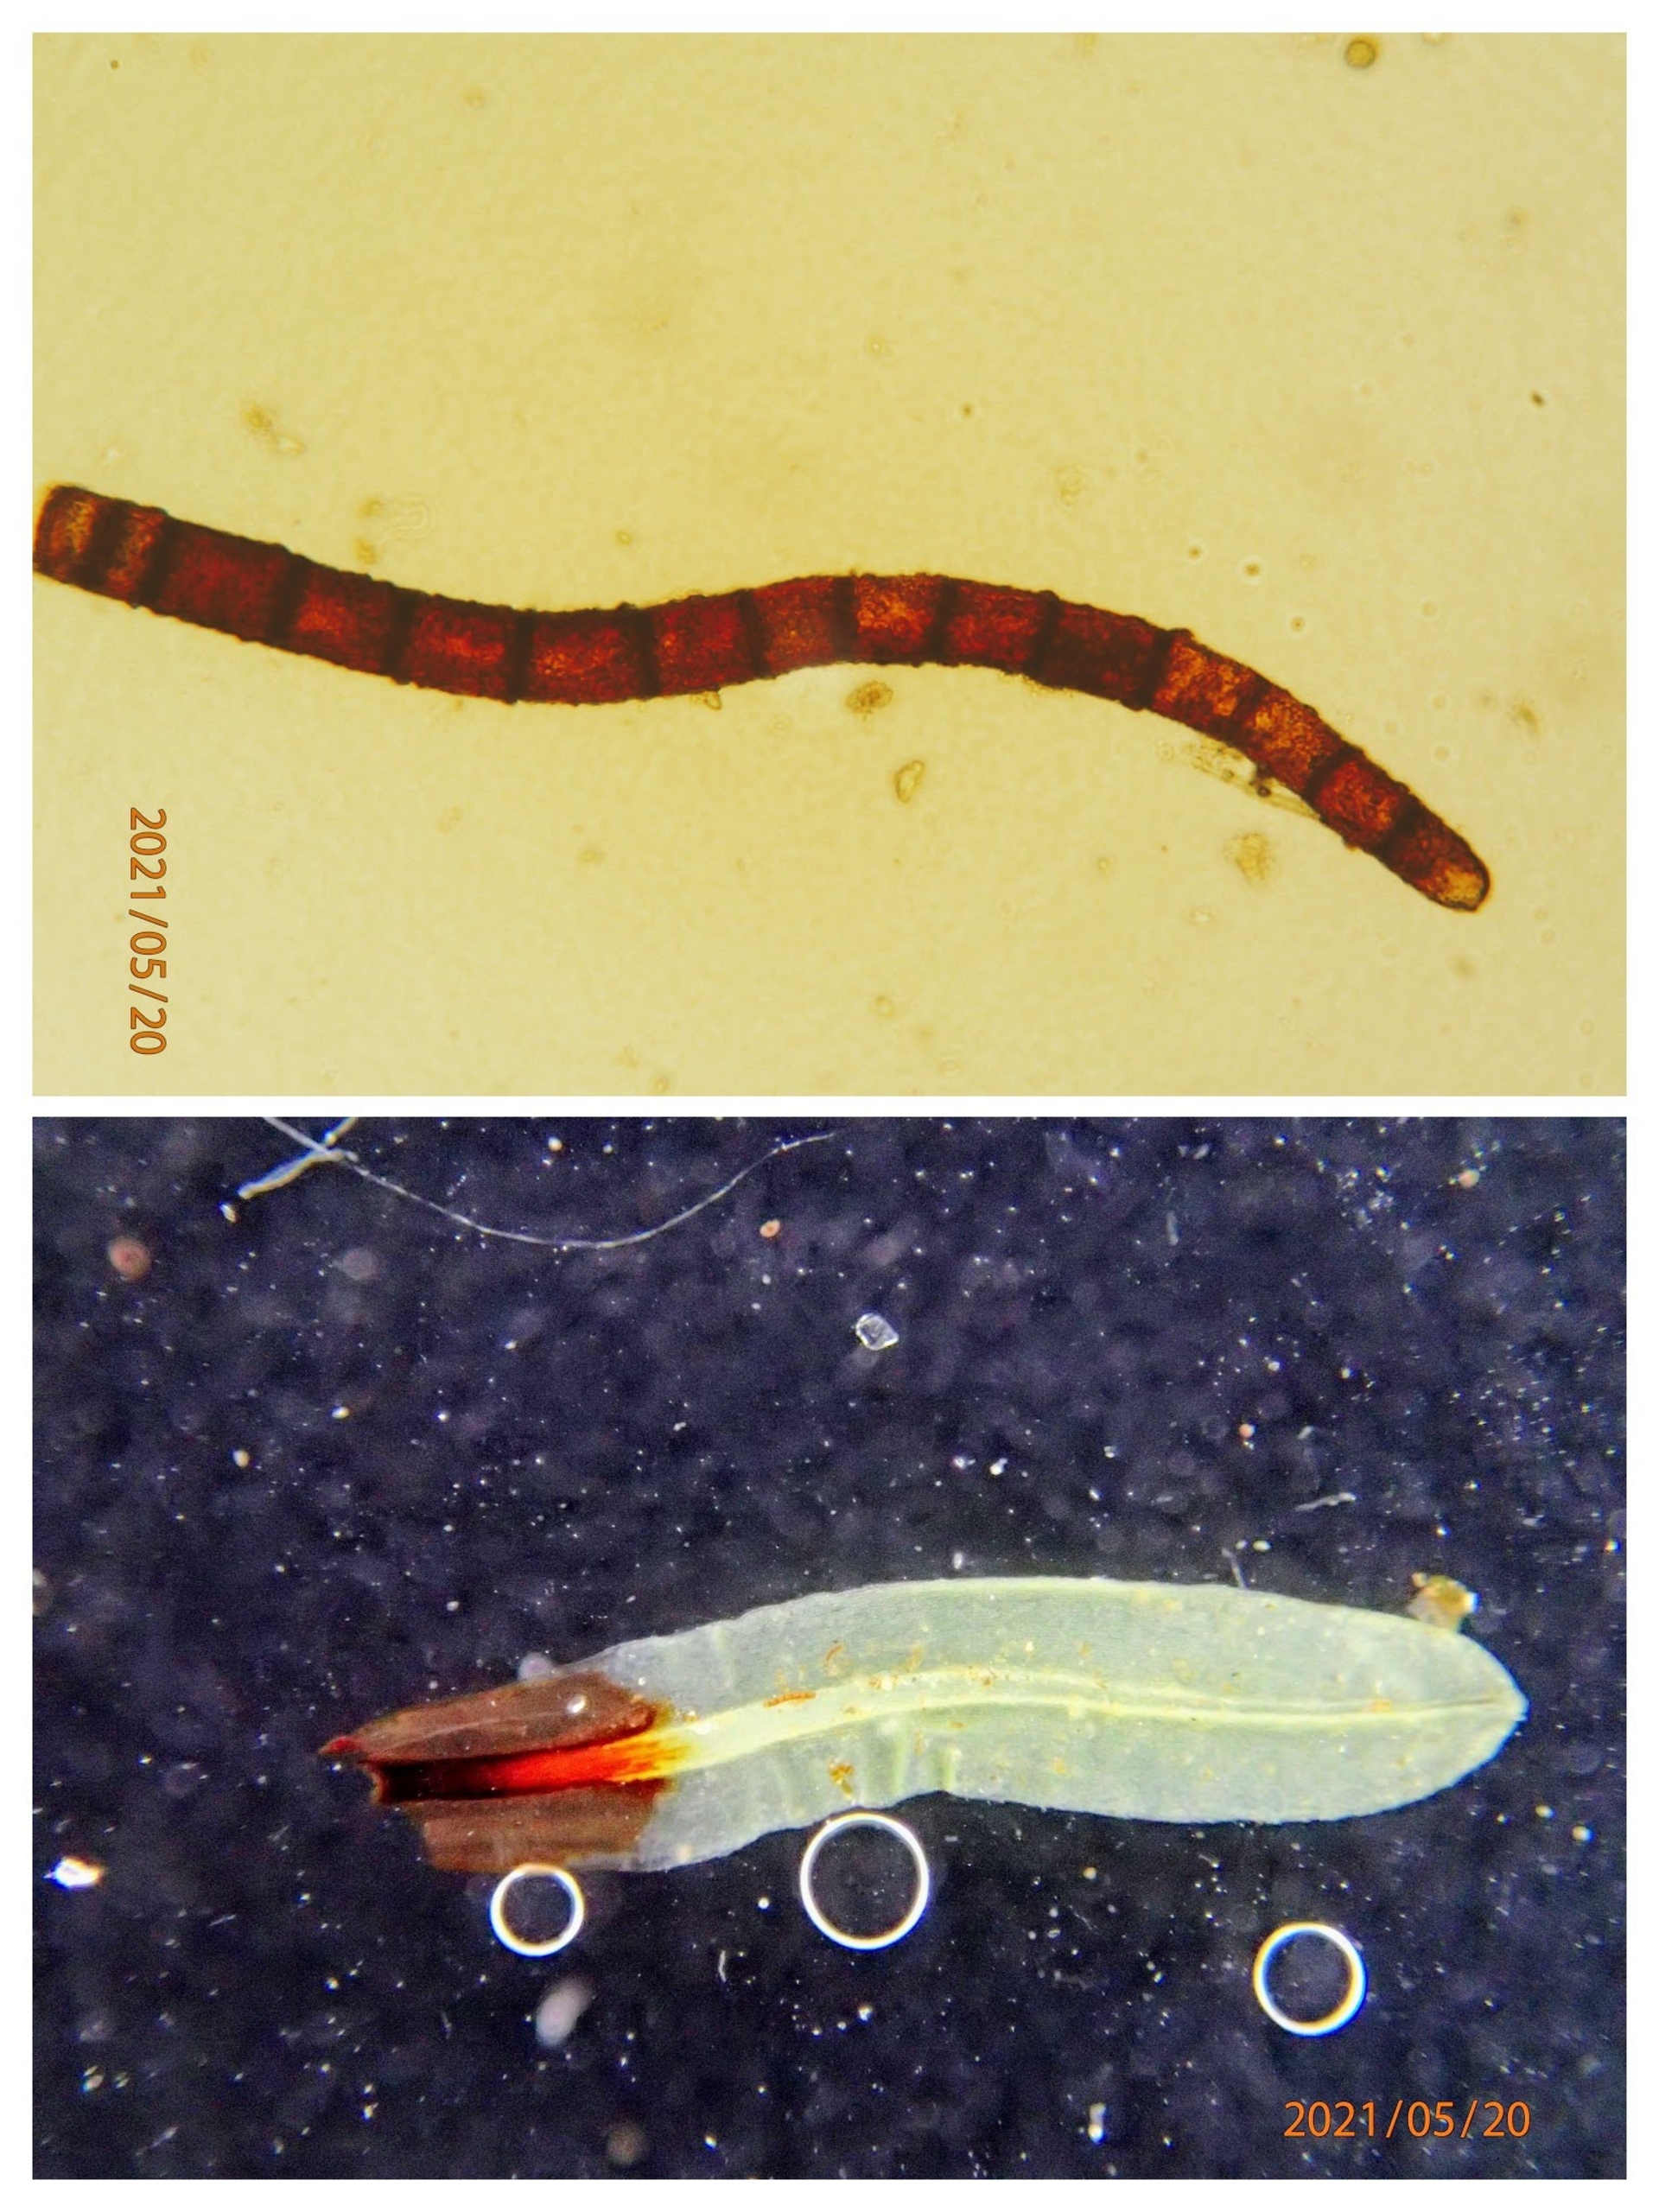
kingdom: Plantae
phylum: Bryophyta
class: Bryopsida
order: Encalyptales
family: Encalyptaceae
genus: Encalypta
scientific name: Encalypta streptocarpa
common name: Stor klokkehætte
